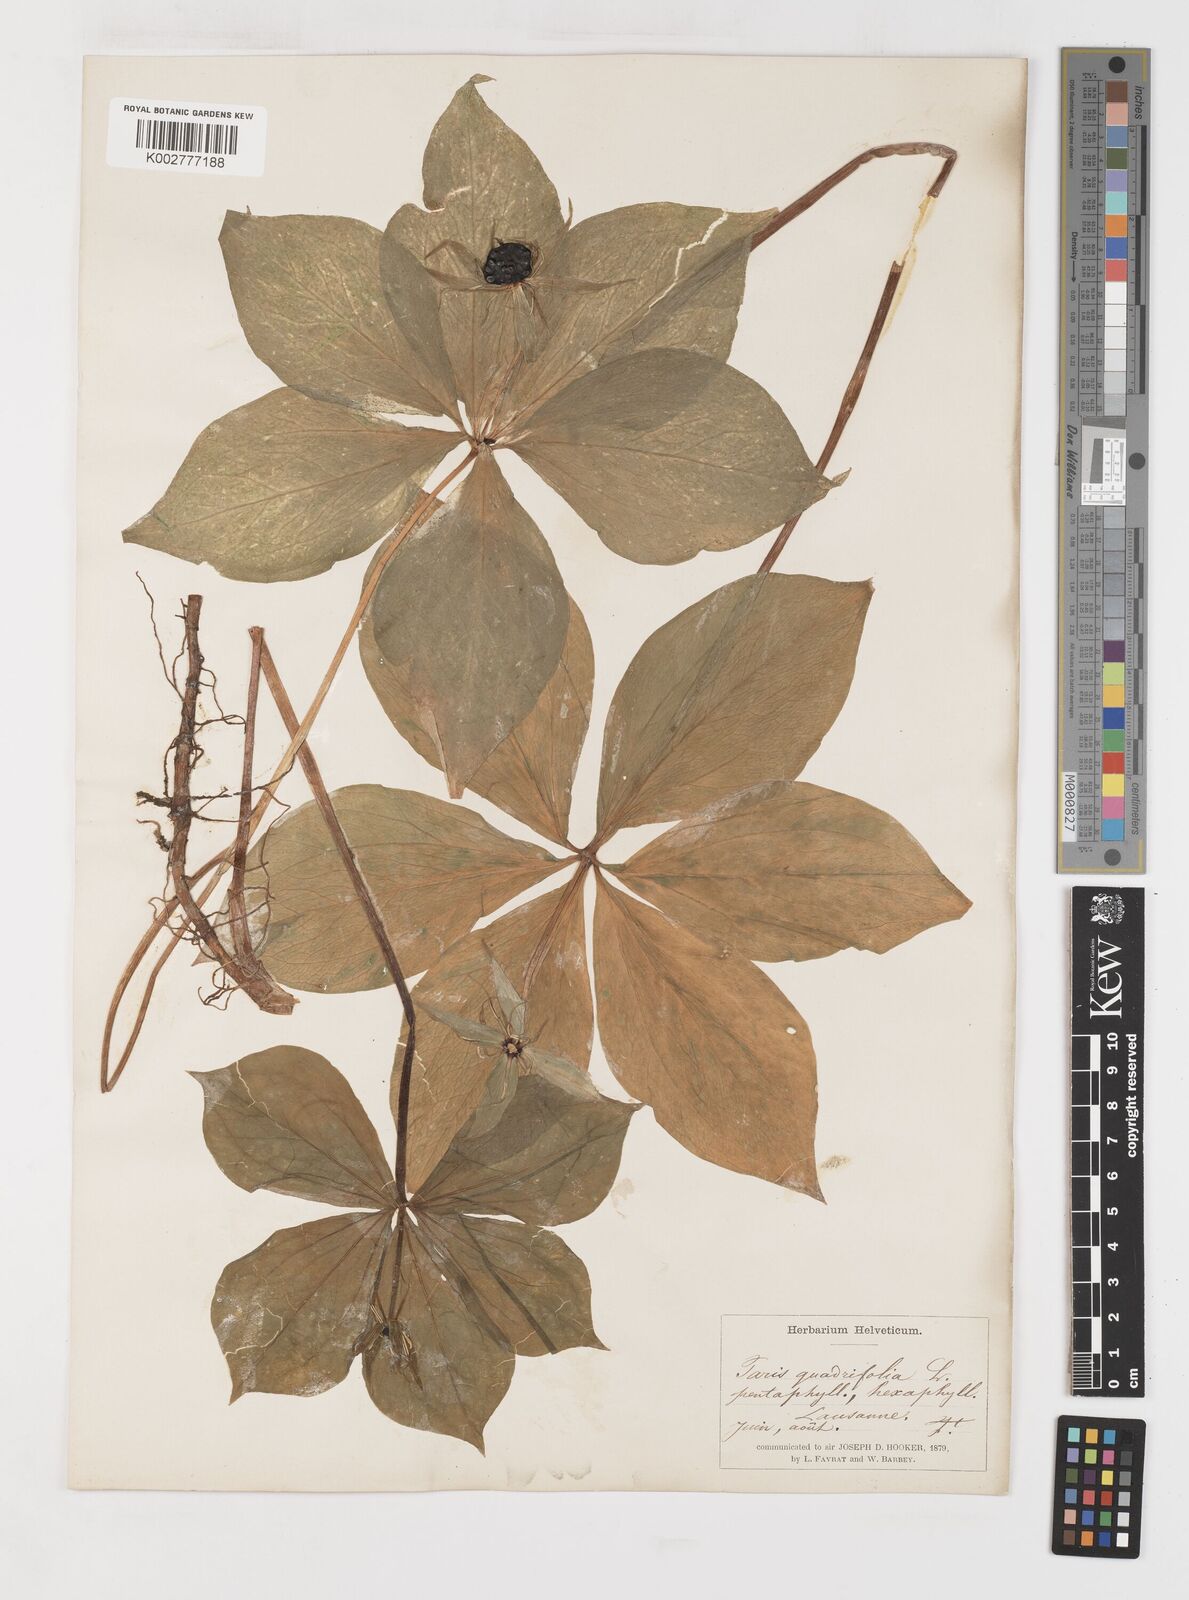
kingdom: Plantae
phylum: Tracheophyta
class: Liliopsida
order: Liliales
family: Melanthiaceae
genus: Paris
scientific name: Paris quadrifolia
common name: Herb-paris
